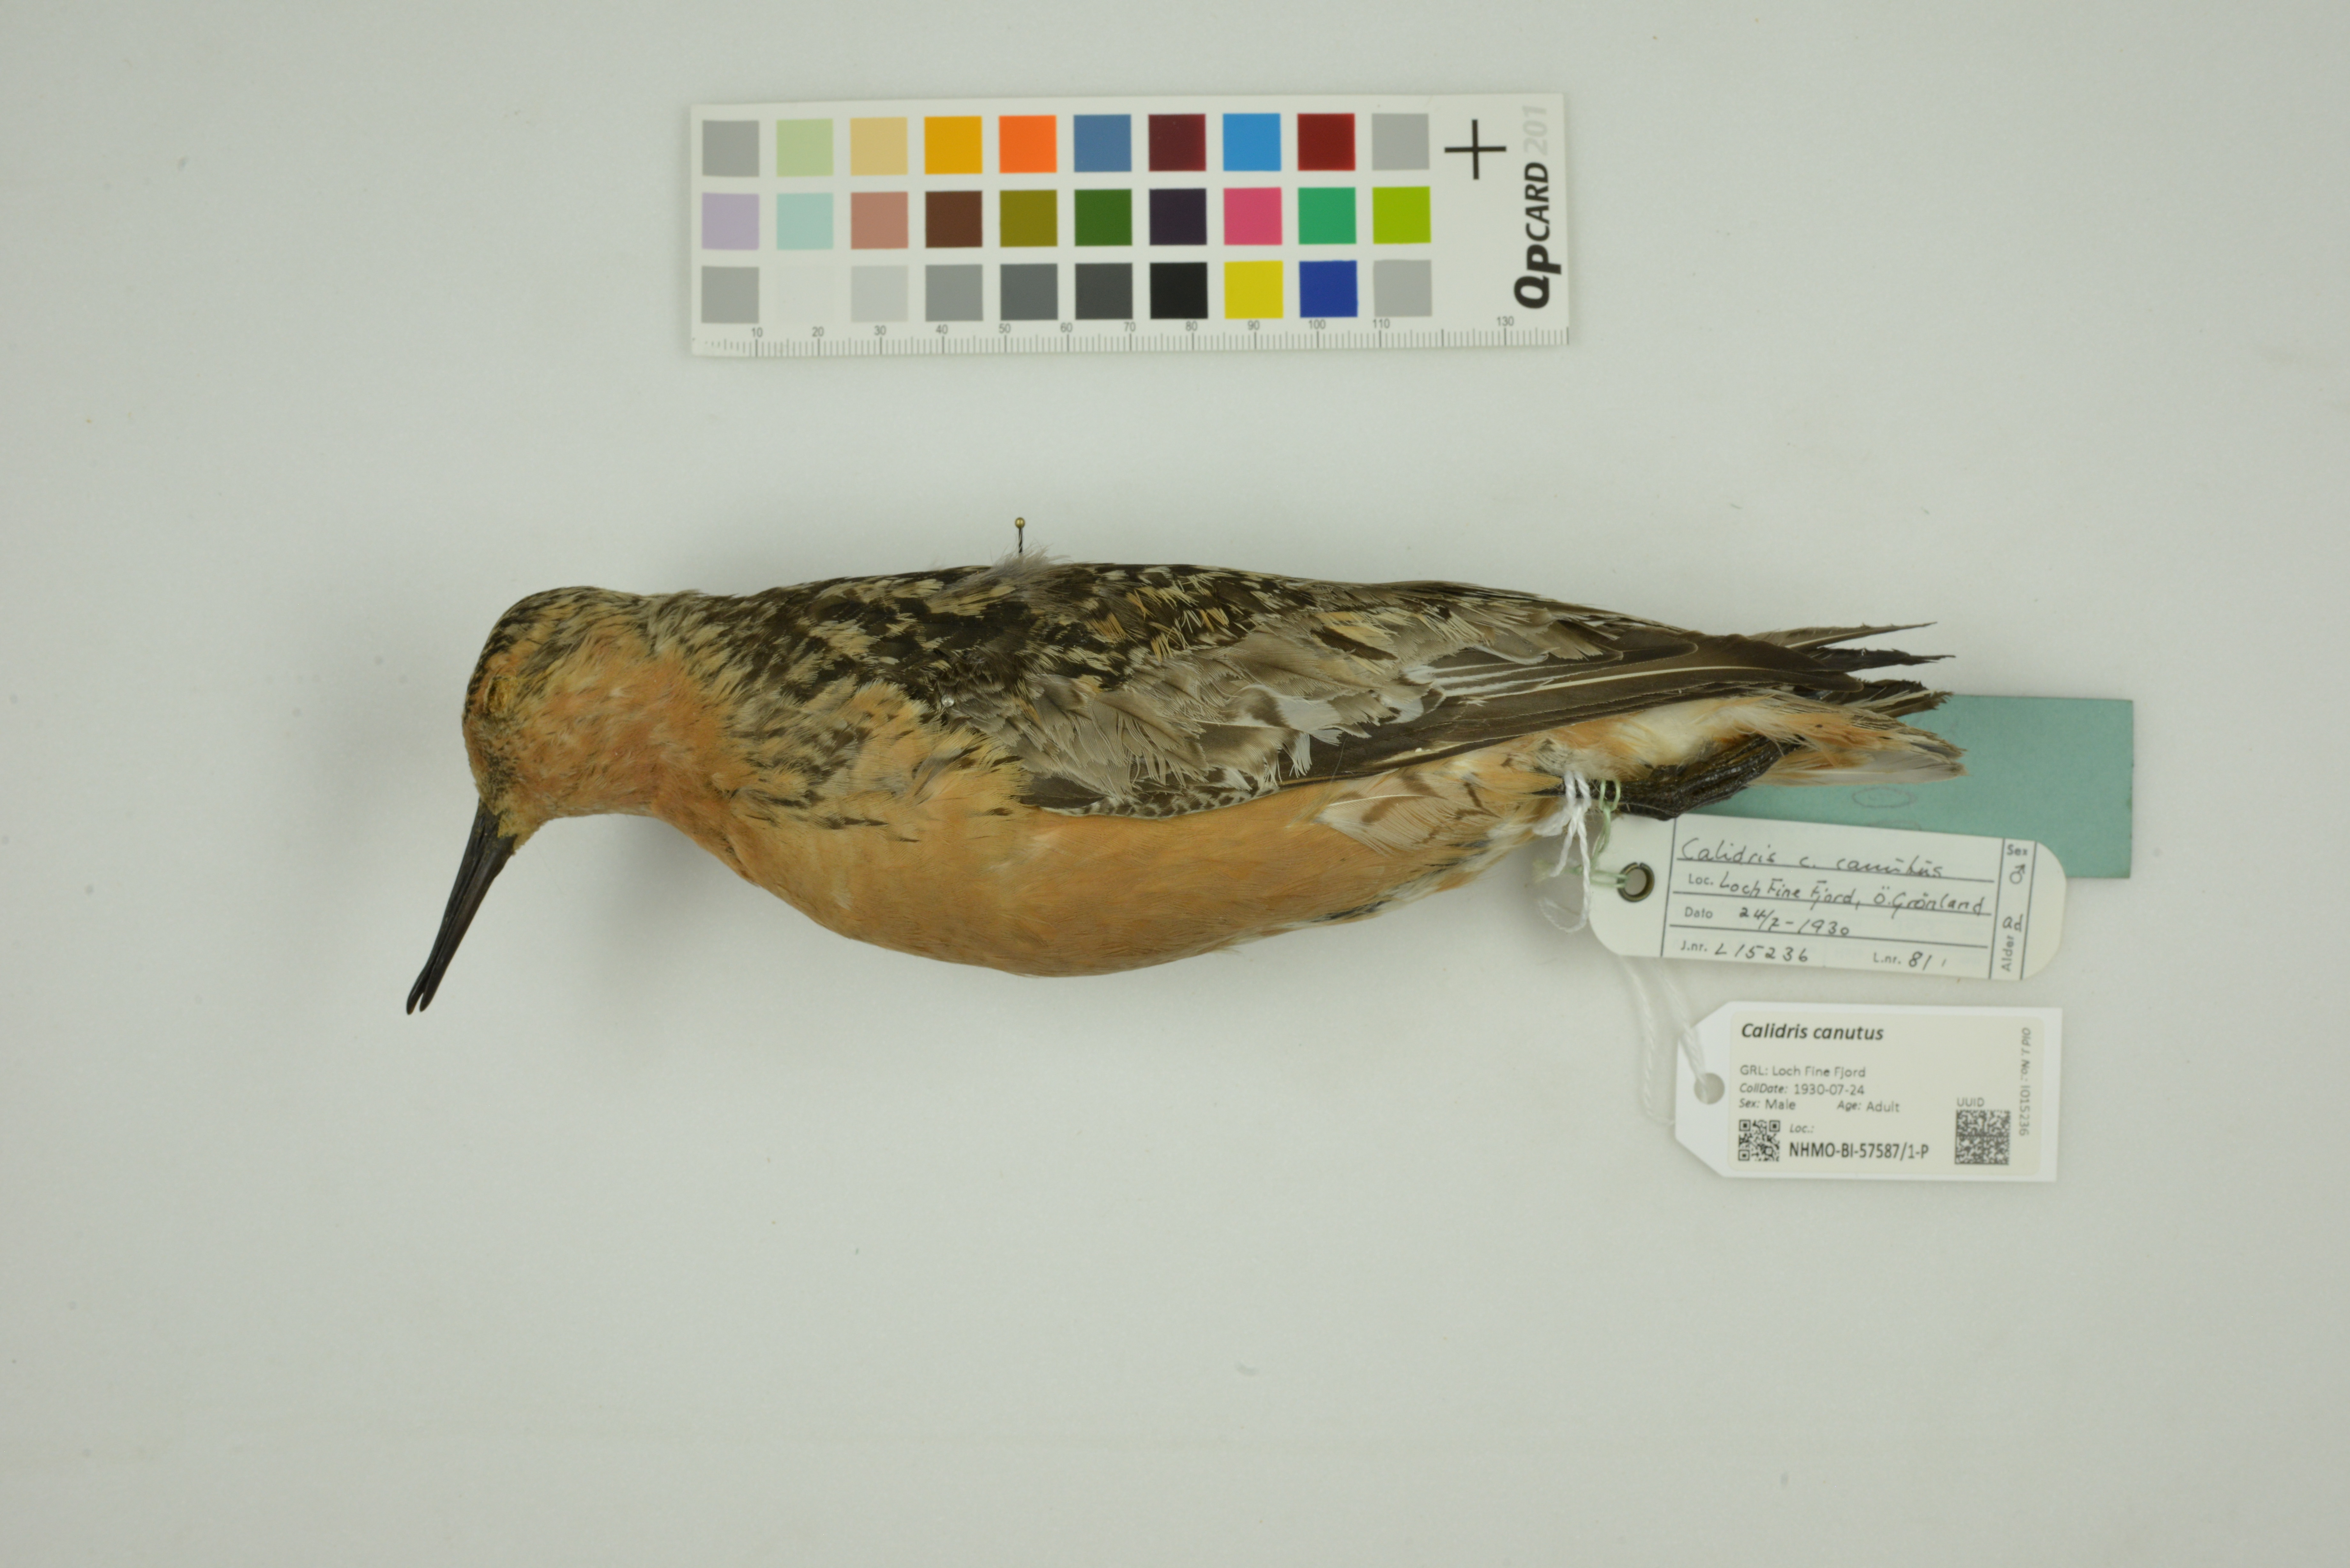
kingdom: Animalia
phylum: Chordata
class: Aves
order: Charadriiformes
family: Scolopacidae
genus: Calidris
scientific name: Calidris canutus
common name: Red knot
